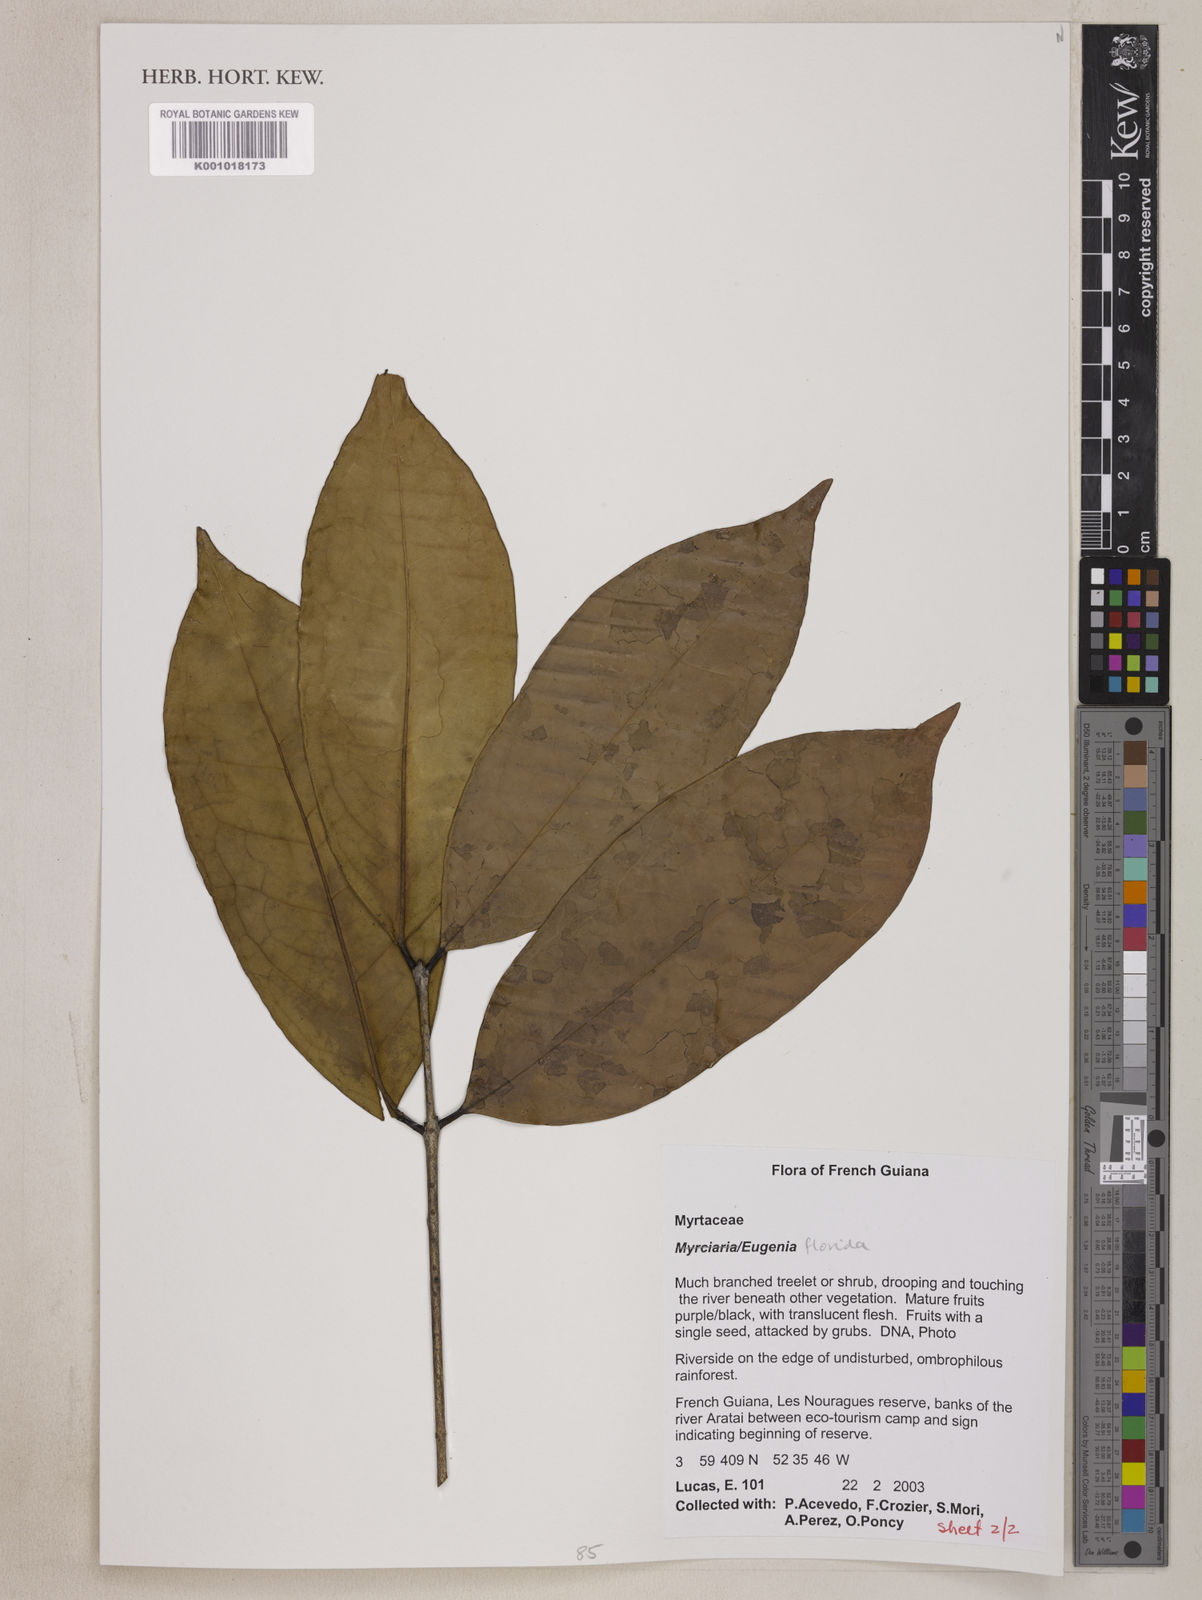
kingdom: Plantae
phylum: Tracheophyta
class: Magnoliopsida
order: Myrtales
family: Myrtaceae
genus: Eugenia
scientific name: Eugenia florida
